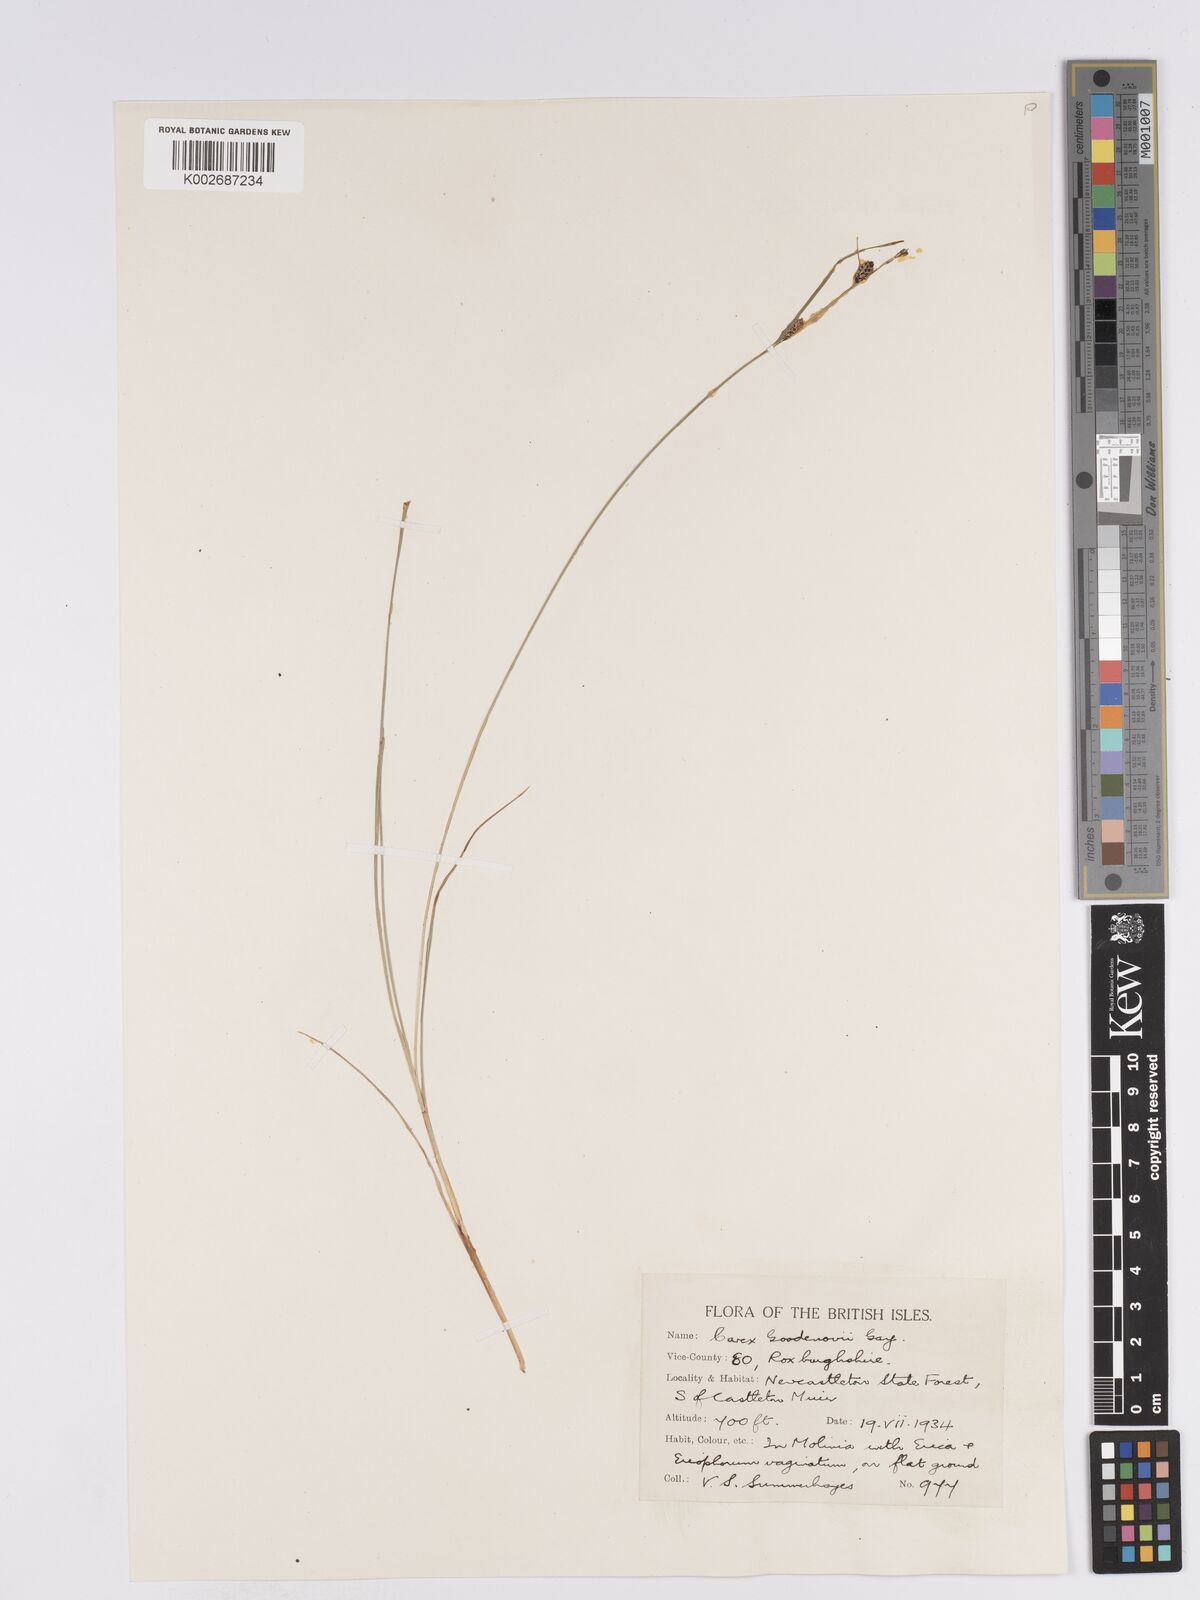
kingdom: Plantae
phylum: Tracheophyta
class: Liliopsida
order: Poales
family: Cyperaceae
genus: Carex
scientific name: Carex nigra
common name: Common sedge
